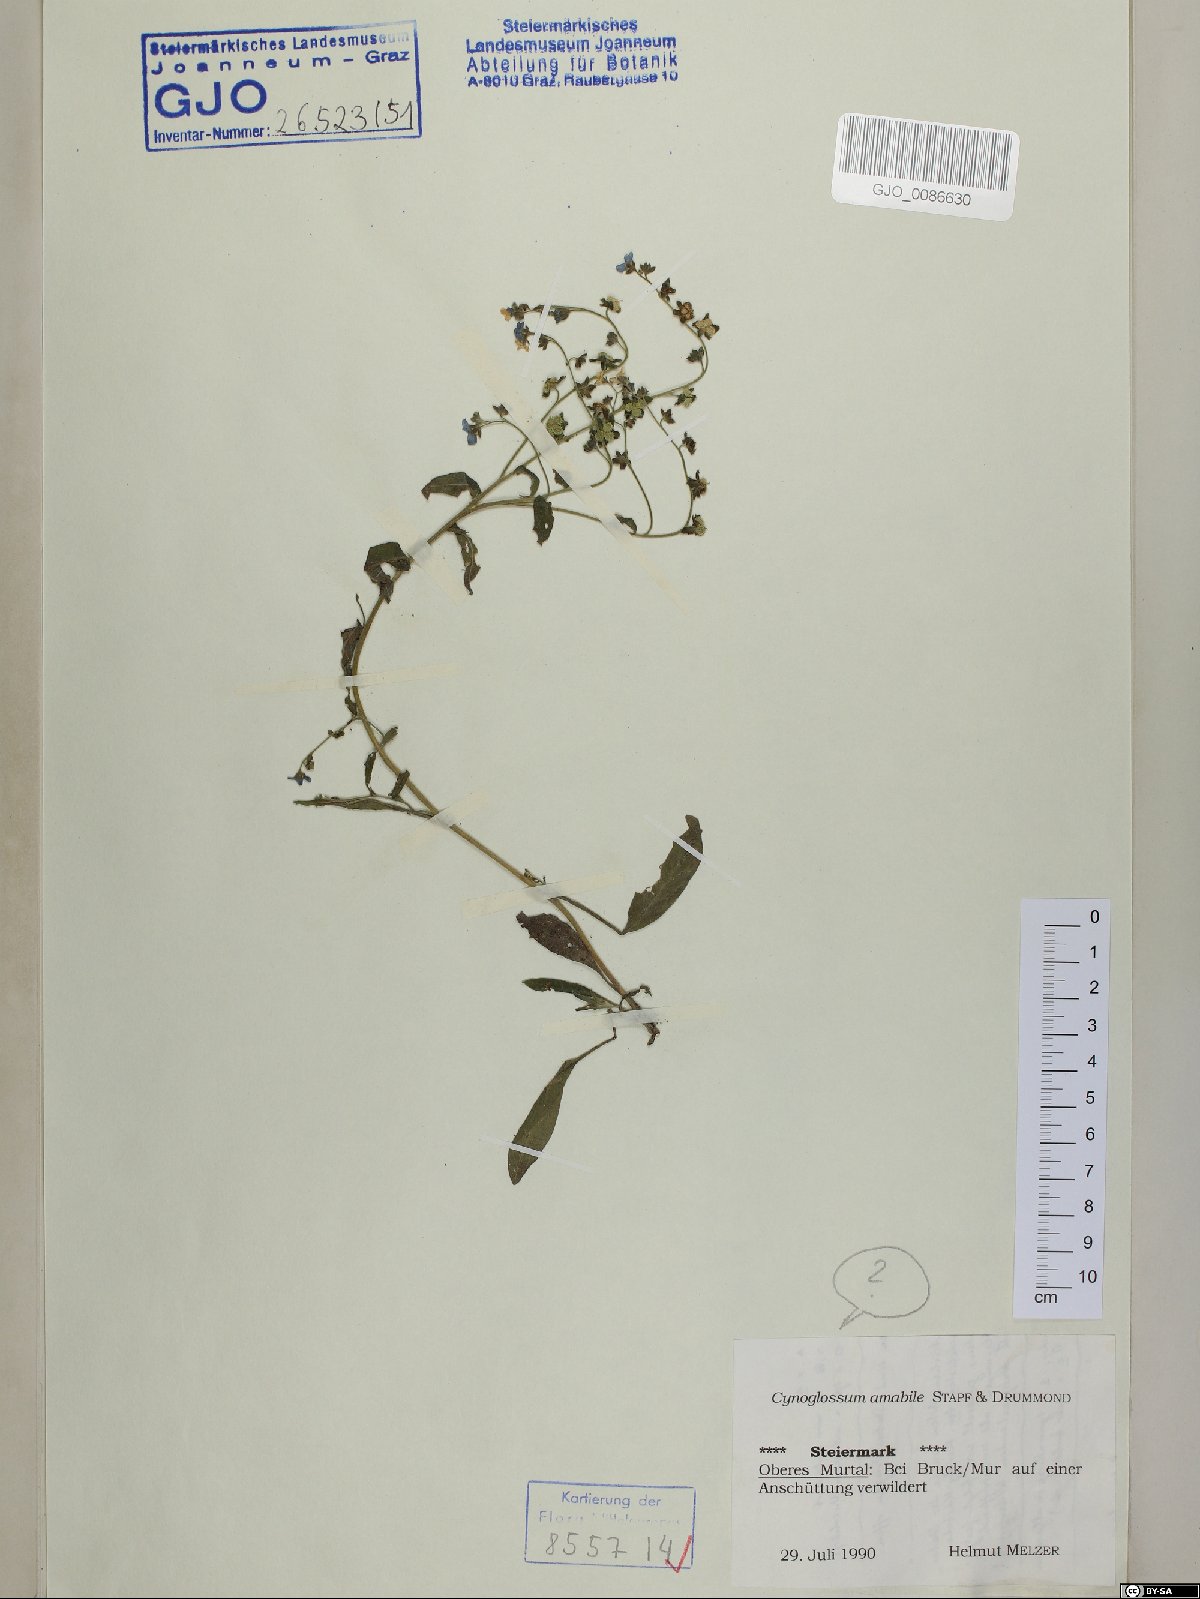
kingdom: Plantae
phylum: Tracheophyta
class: Magnoliopsida
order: Boraginales
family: Boraginaceae
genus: Cynoglossum
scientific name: Cynoglossum amabile
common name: Chinese hound's tongue
